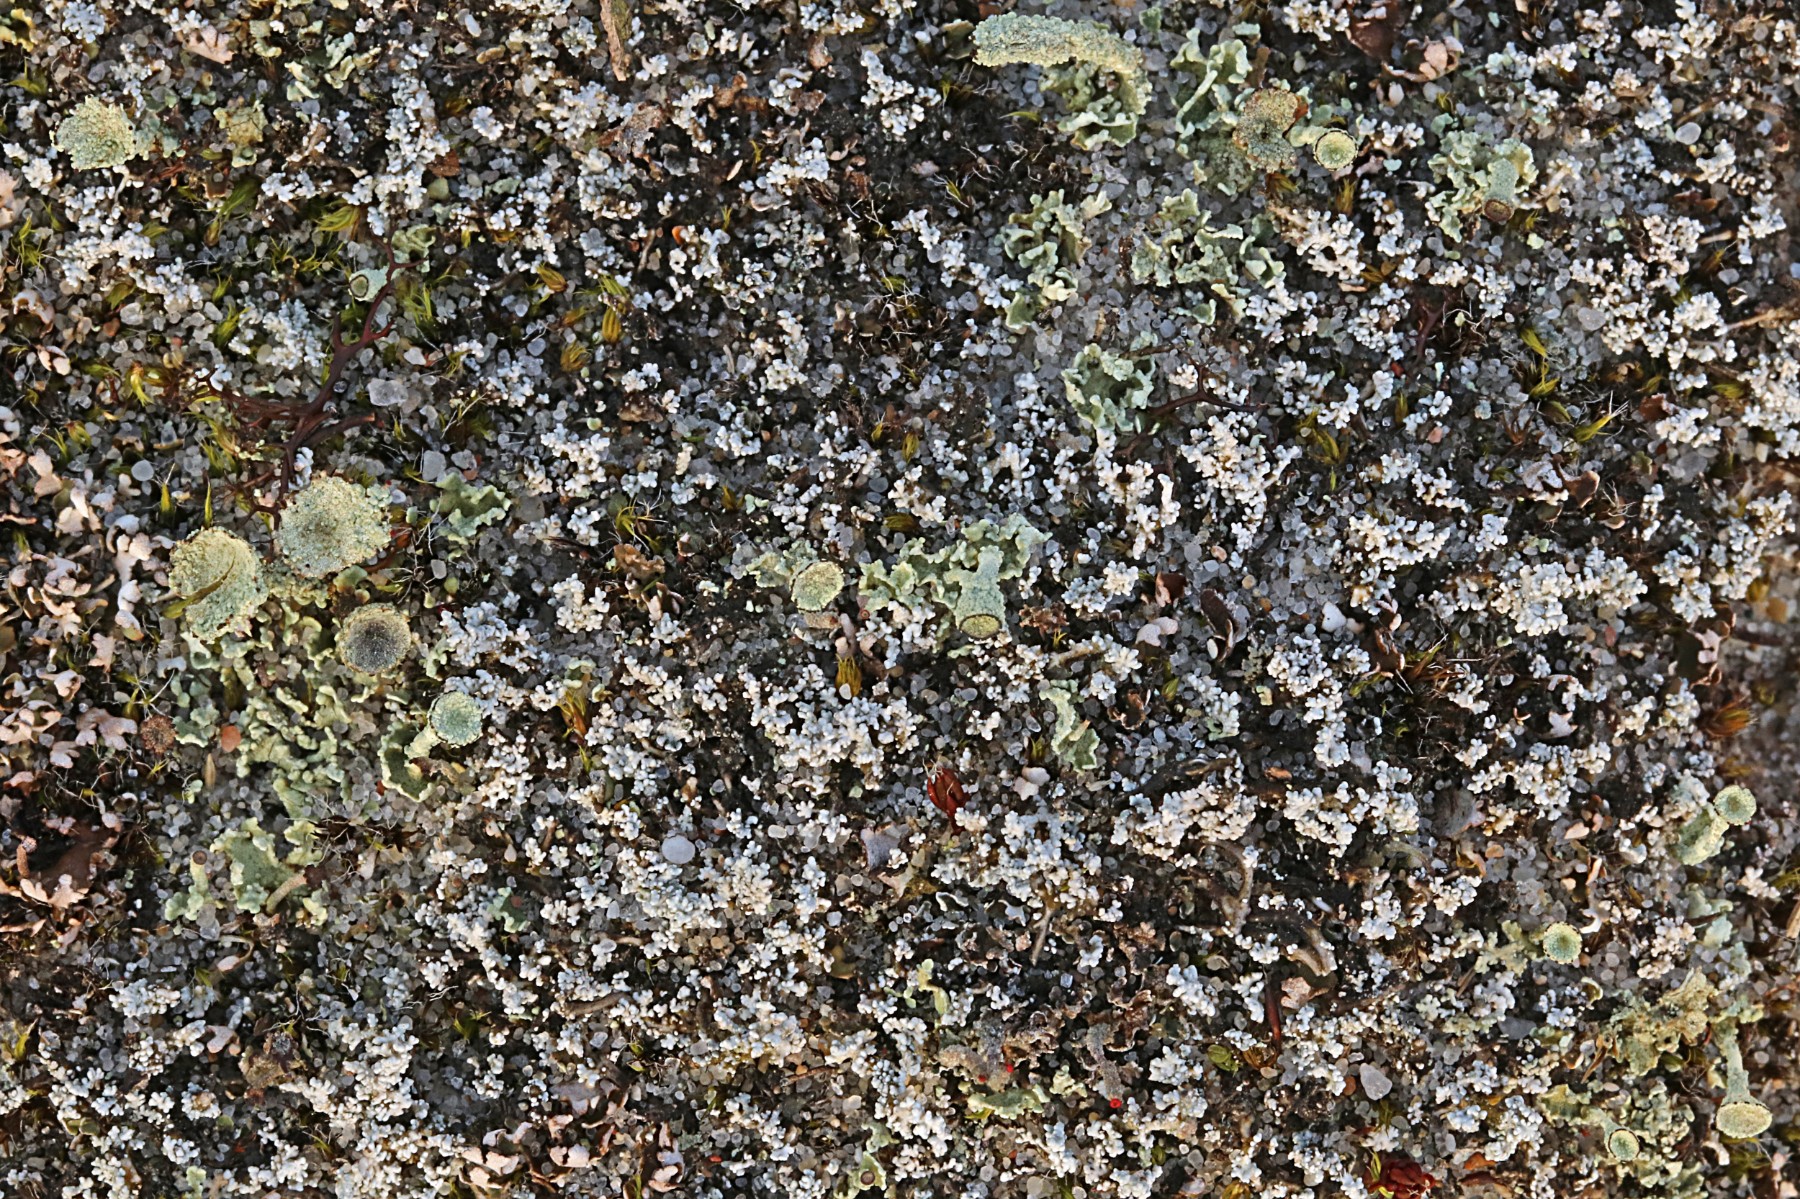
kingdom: Fungi
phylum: Ascomycota
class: Lecanoromycetes
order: Lecanorales
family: Stereocaulaceae
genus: Stereocaulon
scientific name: Stereocaulon condensatum
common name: lav korallav
